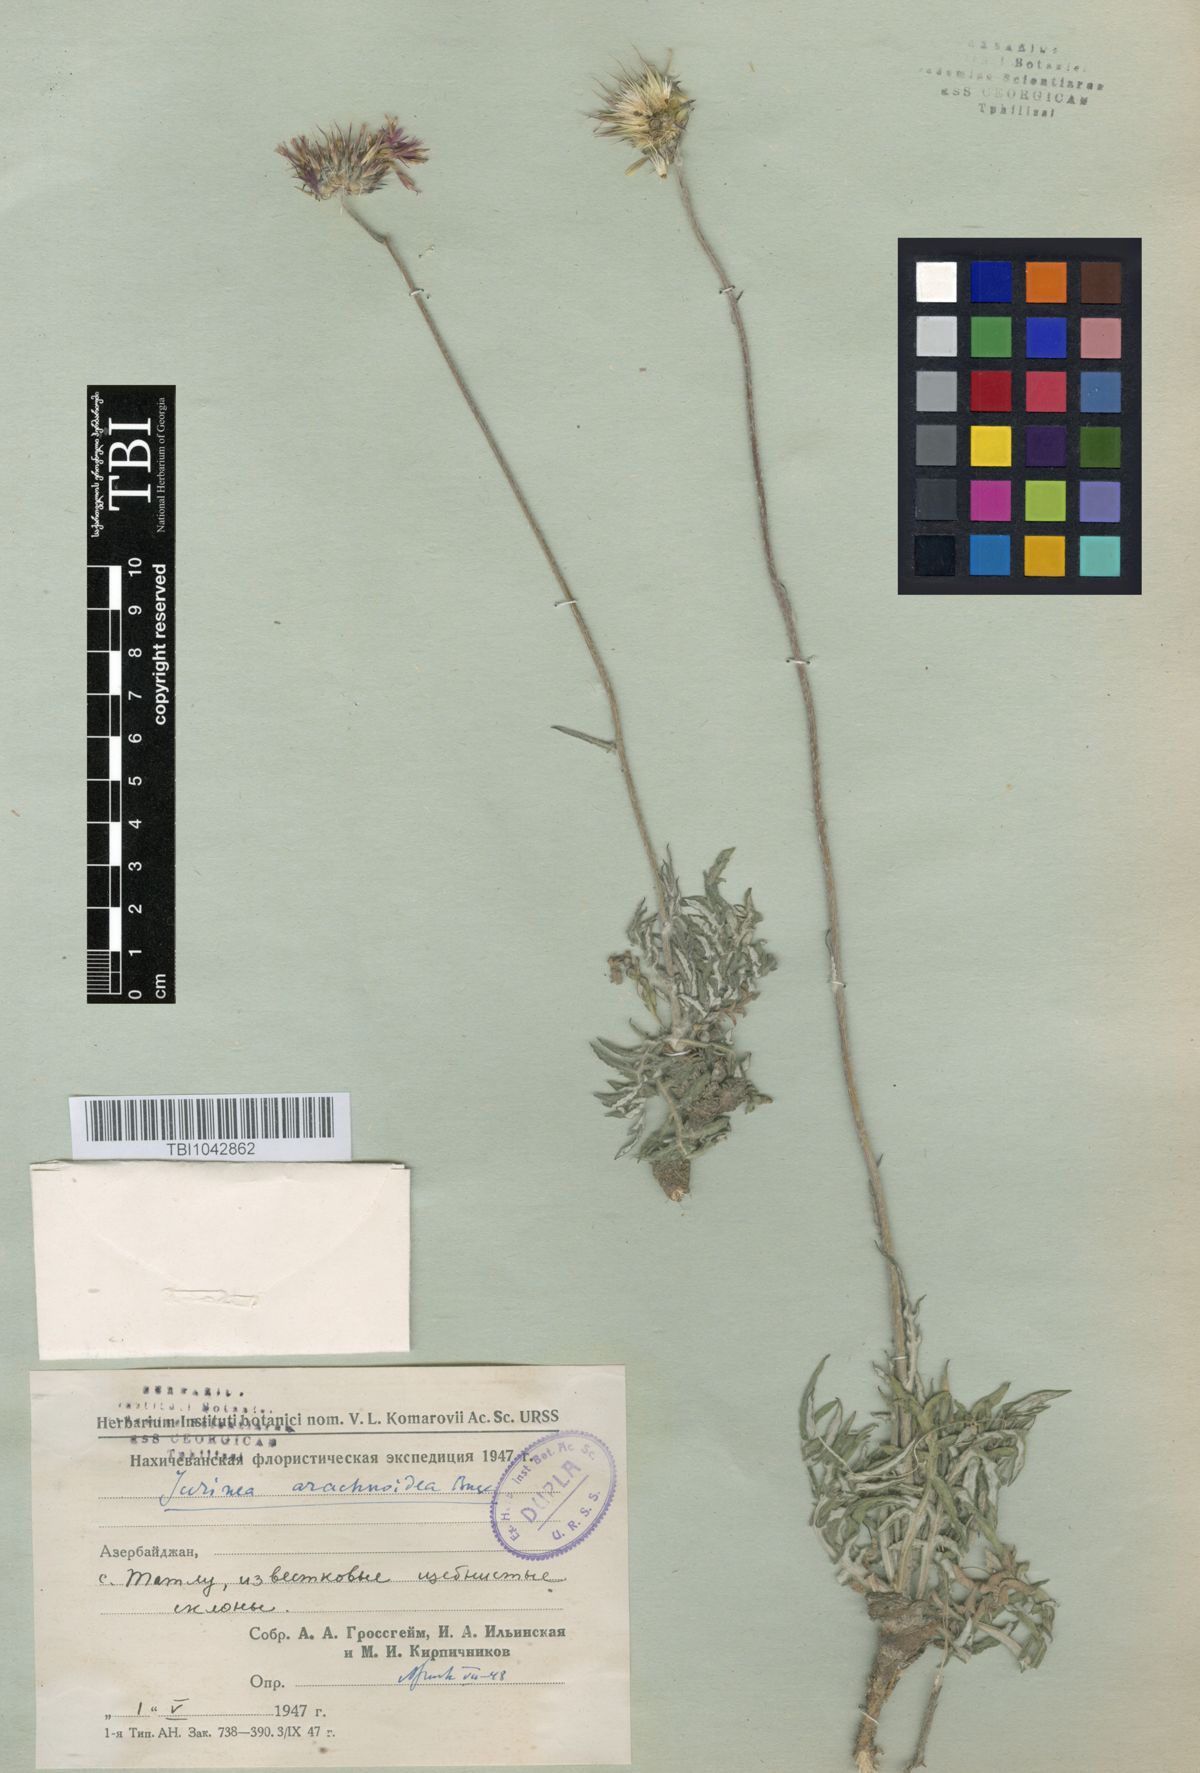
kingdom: Plantae
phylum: Tracheophyta
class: Magnoliopsida
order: Asterales
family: Asteraceae
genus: Jurinea
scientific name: Jurinea blanda
